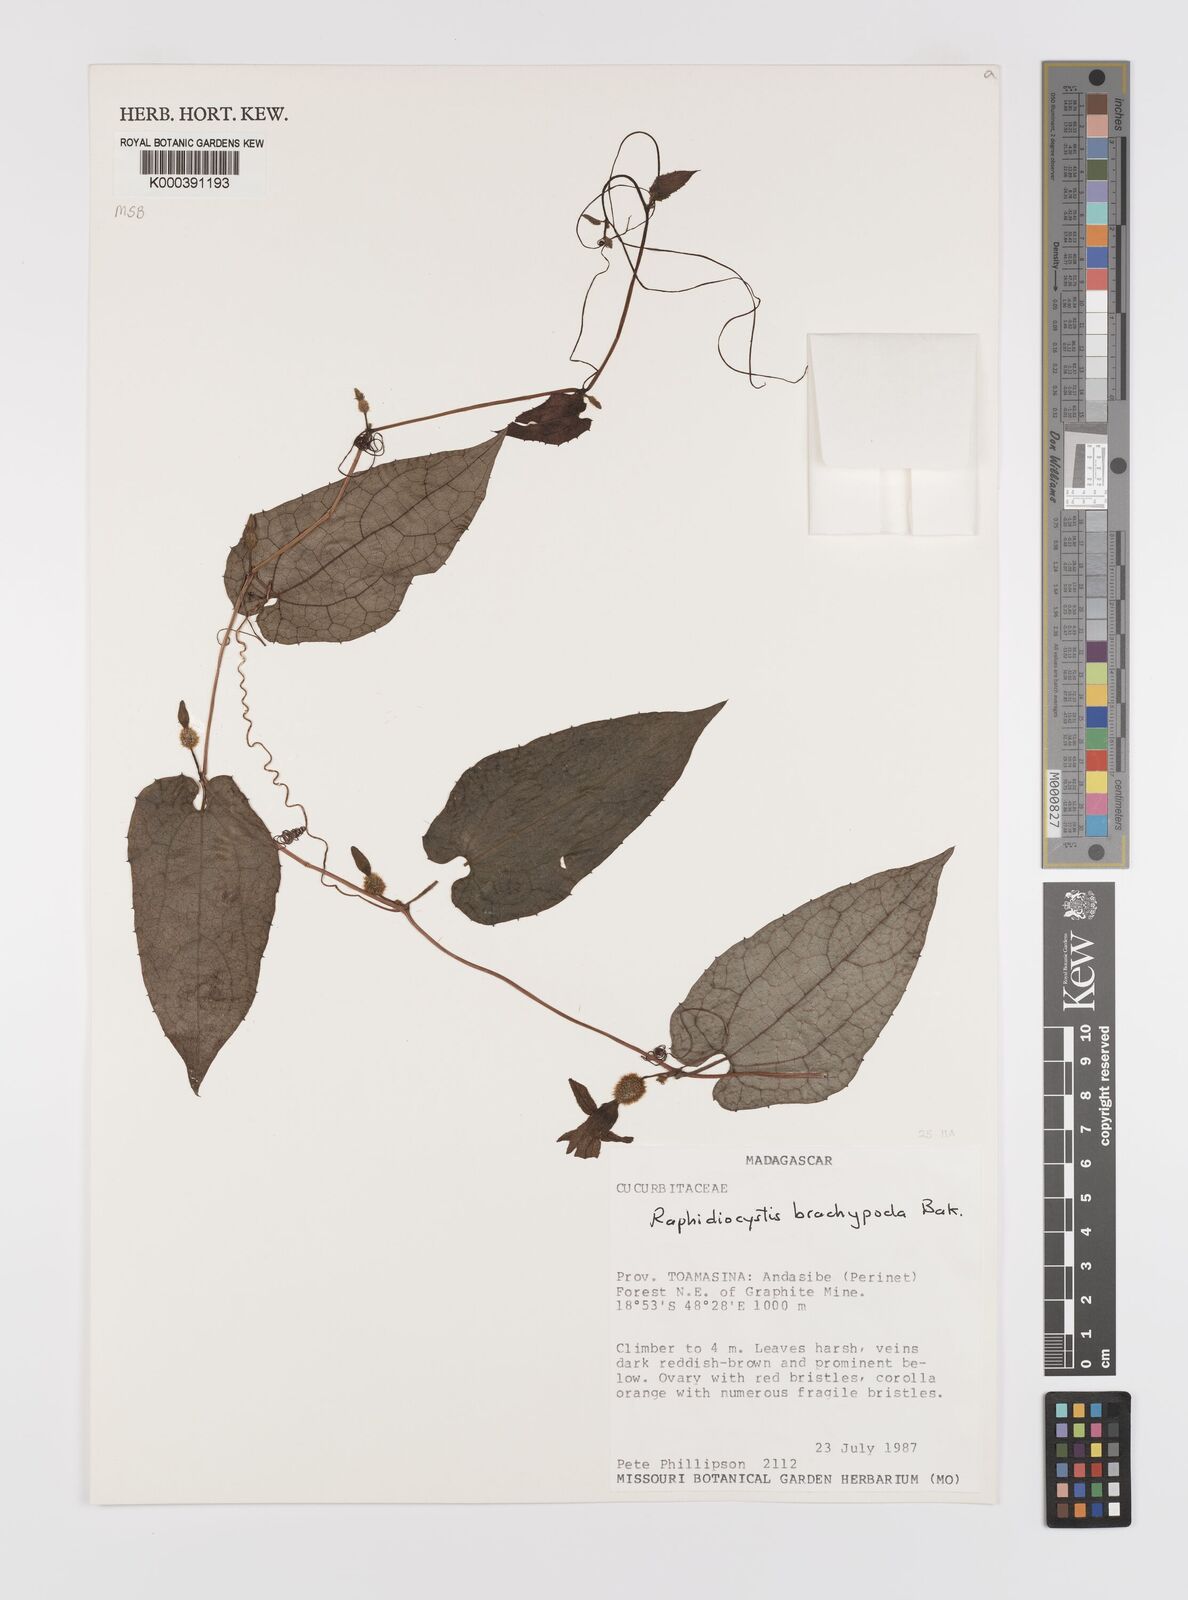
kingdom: Plantae
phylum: Tracheophyta
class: Magnoliopsida
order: Cucurbitales
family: Cucurbitaceae
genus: Raphidiocystis
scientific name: Raphidiocystis brachypoda
